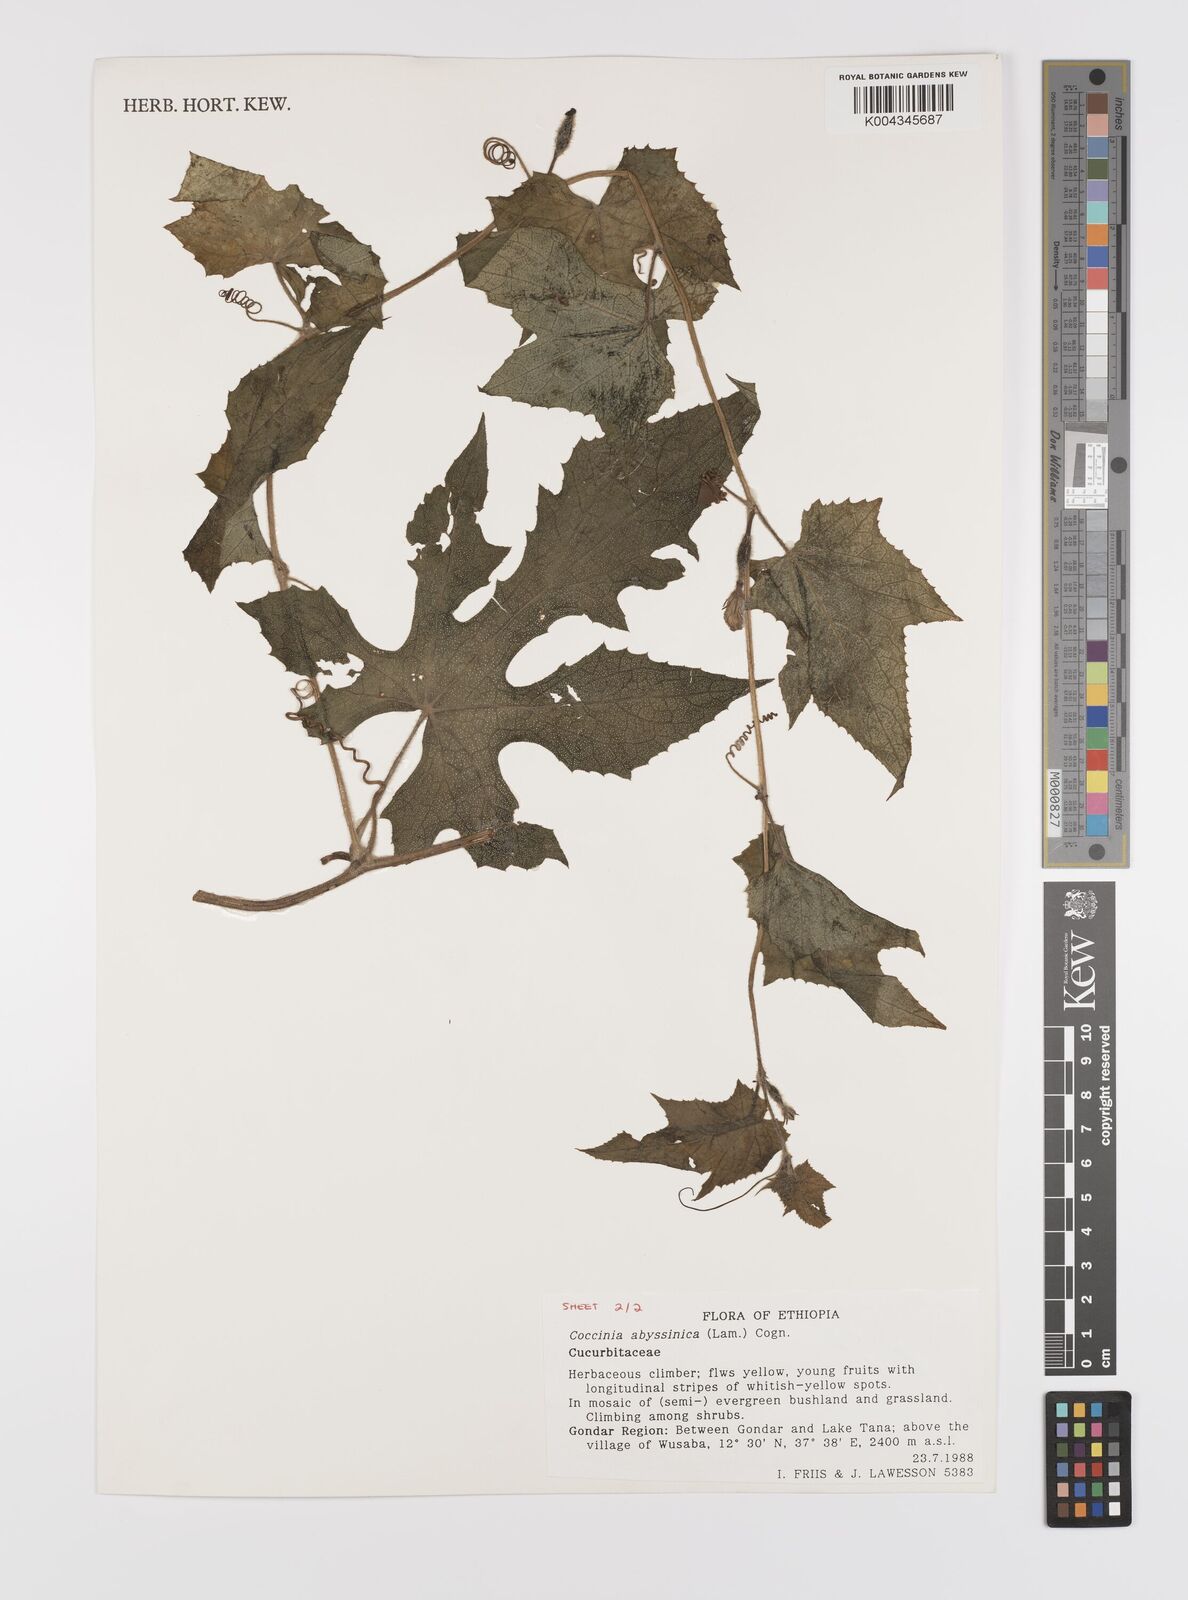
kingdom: Plantae
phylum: Tracheophyta
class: Magnoliopsida
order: Cucurbitales
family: Cucurbitaceae
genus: Coccinia
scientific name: Coccinia abyssinica
